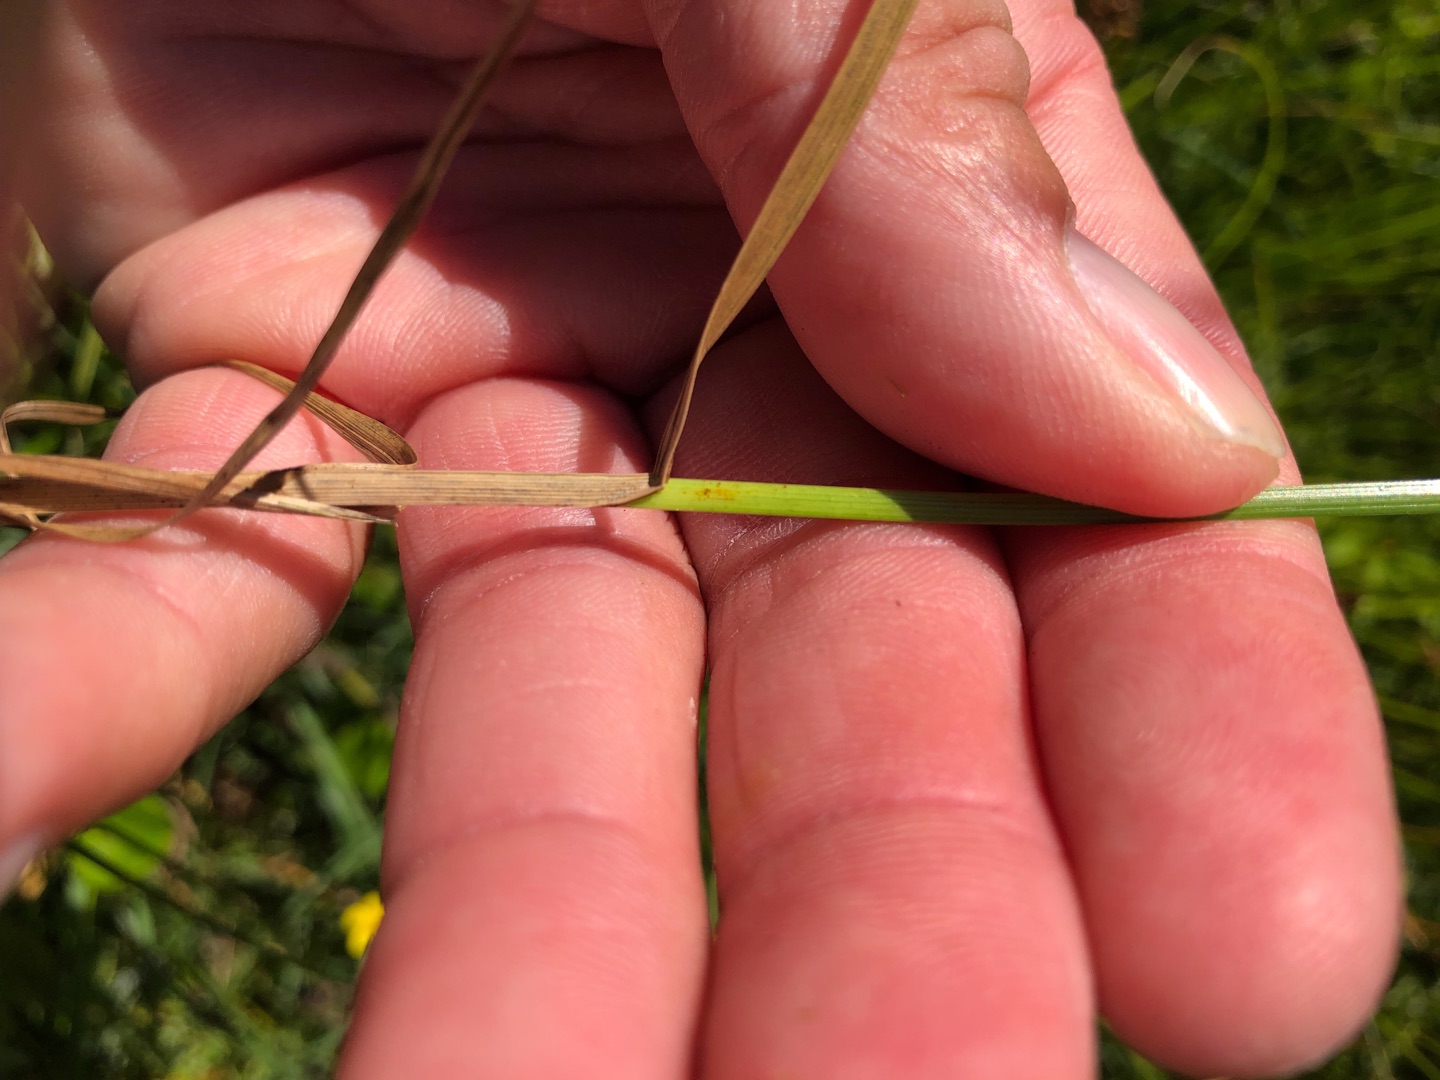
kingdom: Plantae
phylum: Tracheophyta
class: Liliopsida
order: Poales
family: Cyperaceae
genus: Carex
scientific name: Carex disticha
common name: Toradet star
